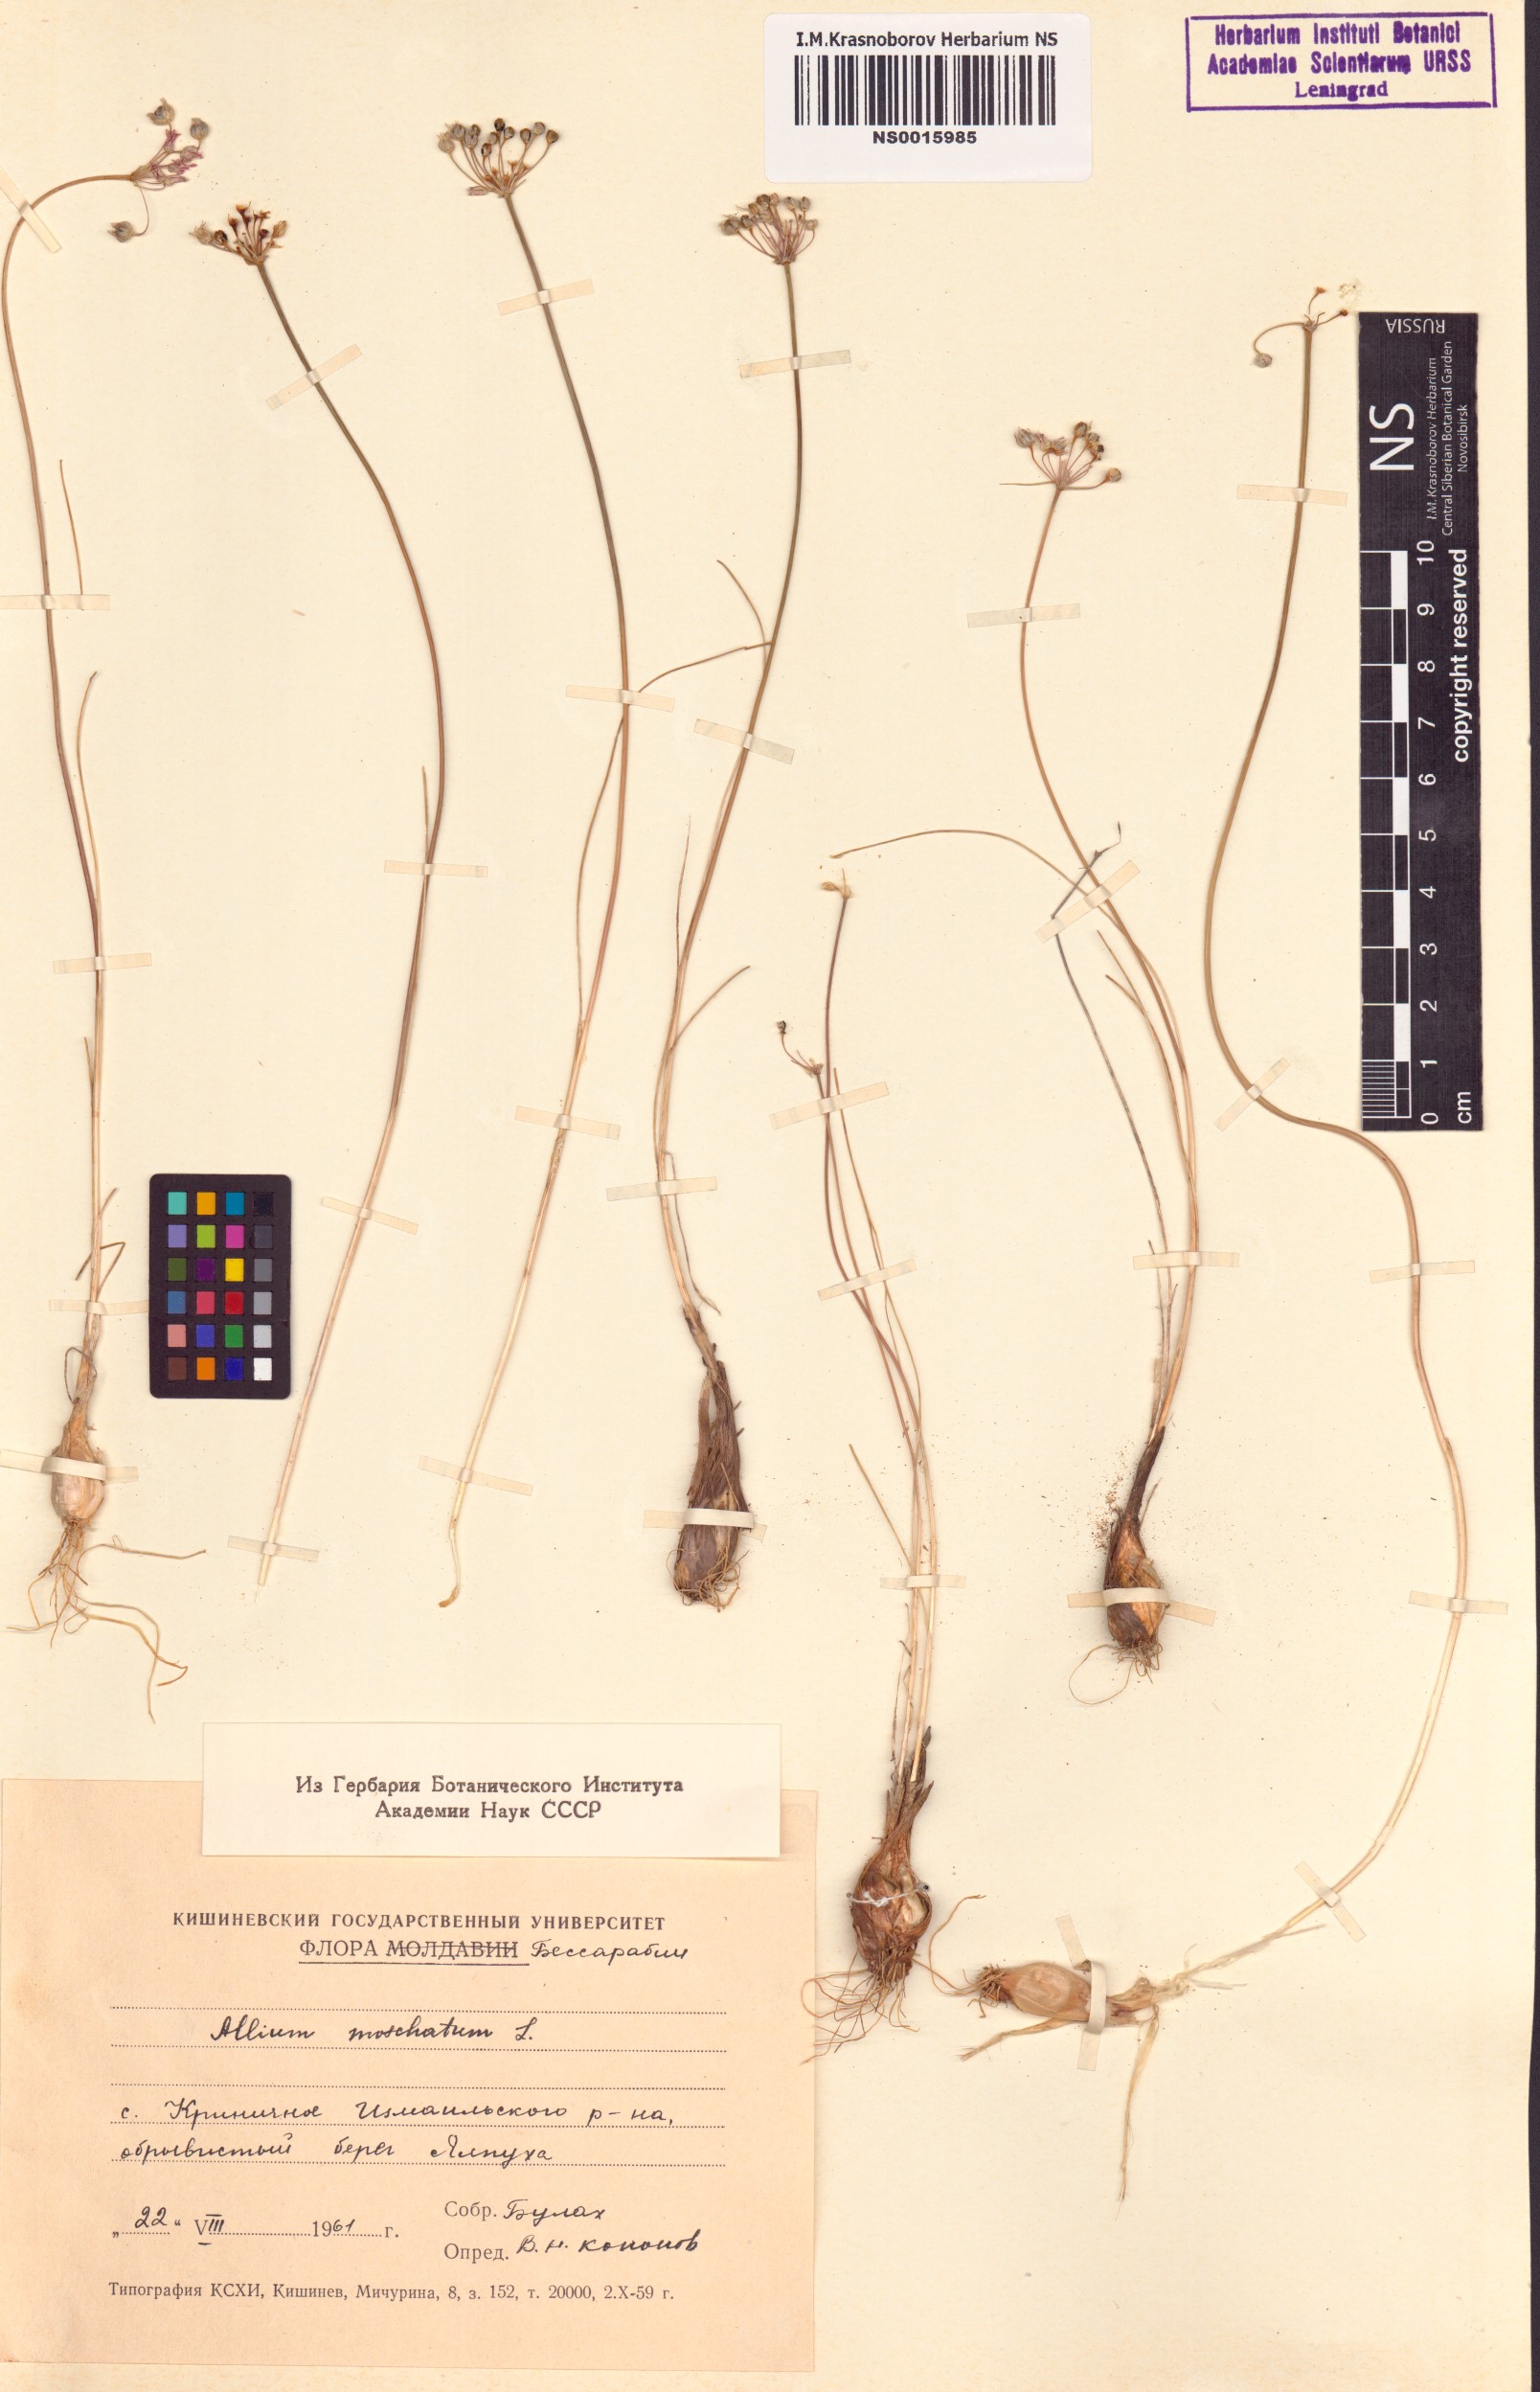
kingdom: Plantae
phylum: Tracheophyta
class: Liliopsida
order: Asparagales
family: Amaryllidaceae
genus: Allium
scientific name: Allium moschatum
